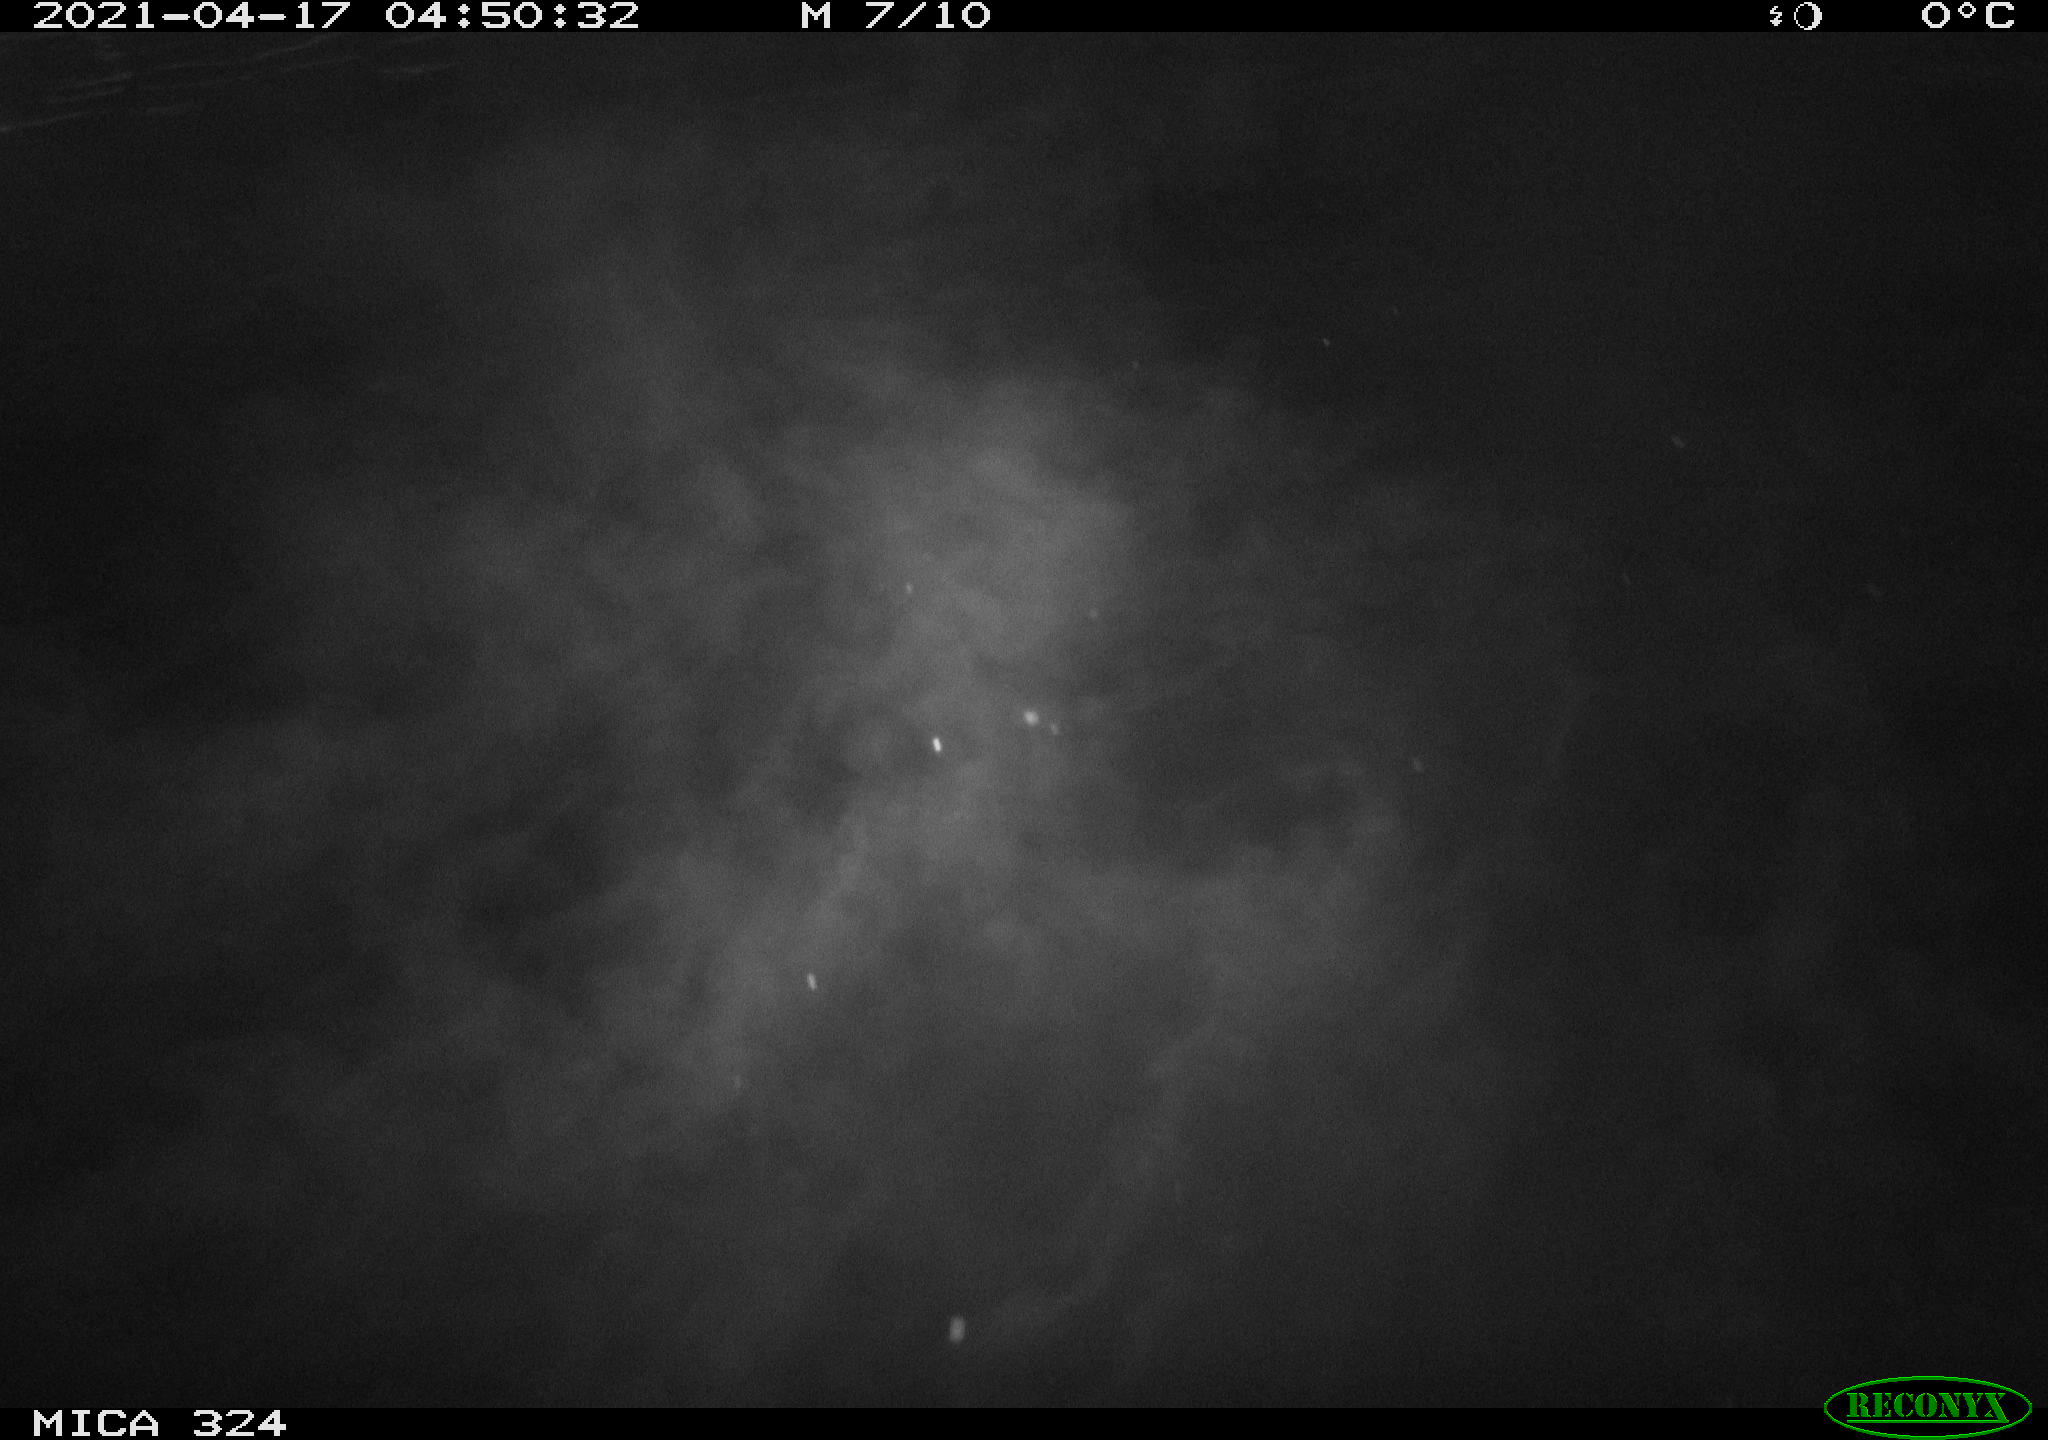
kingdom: Animalia
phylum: Chordata
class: Aves
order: Anseriformes
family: Anatidae
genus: Anas
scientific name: Anas platyrhynchos
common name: Mallard
